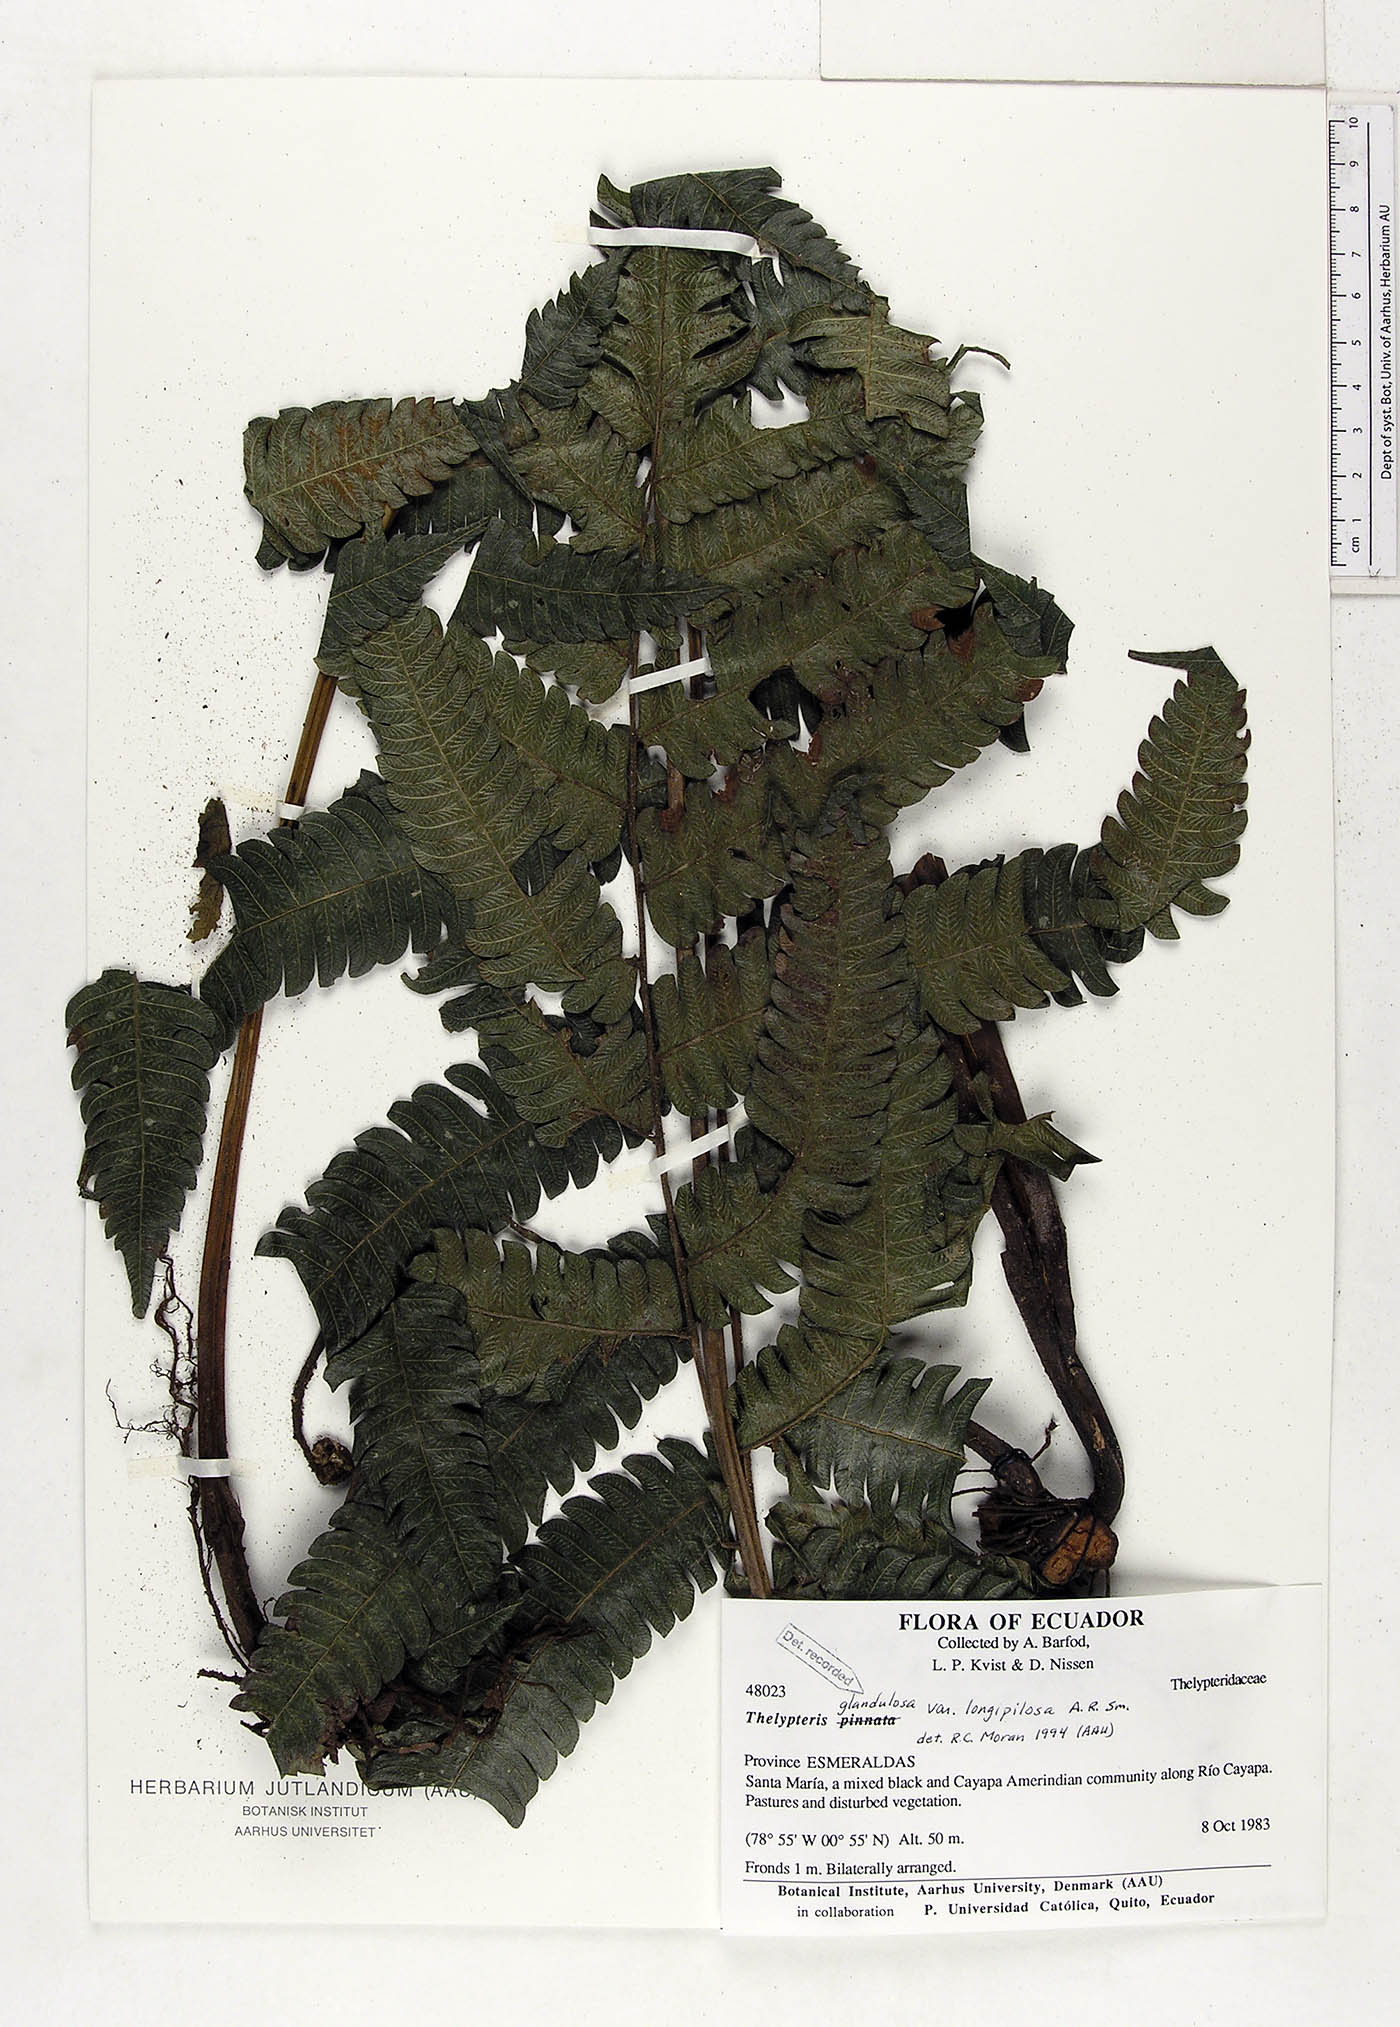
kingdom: Plantae
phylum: Tracheophyta
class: Polypodiopsida
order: Polypodiales
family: Thelypteridaceae
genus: Steiropteris
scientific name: Steiropteris glandulosa
